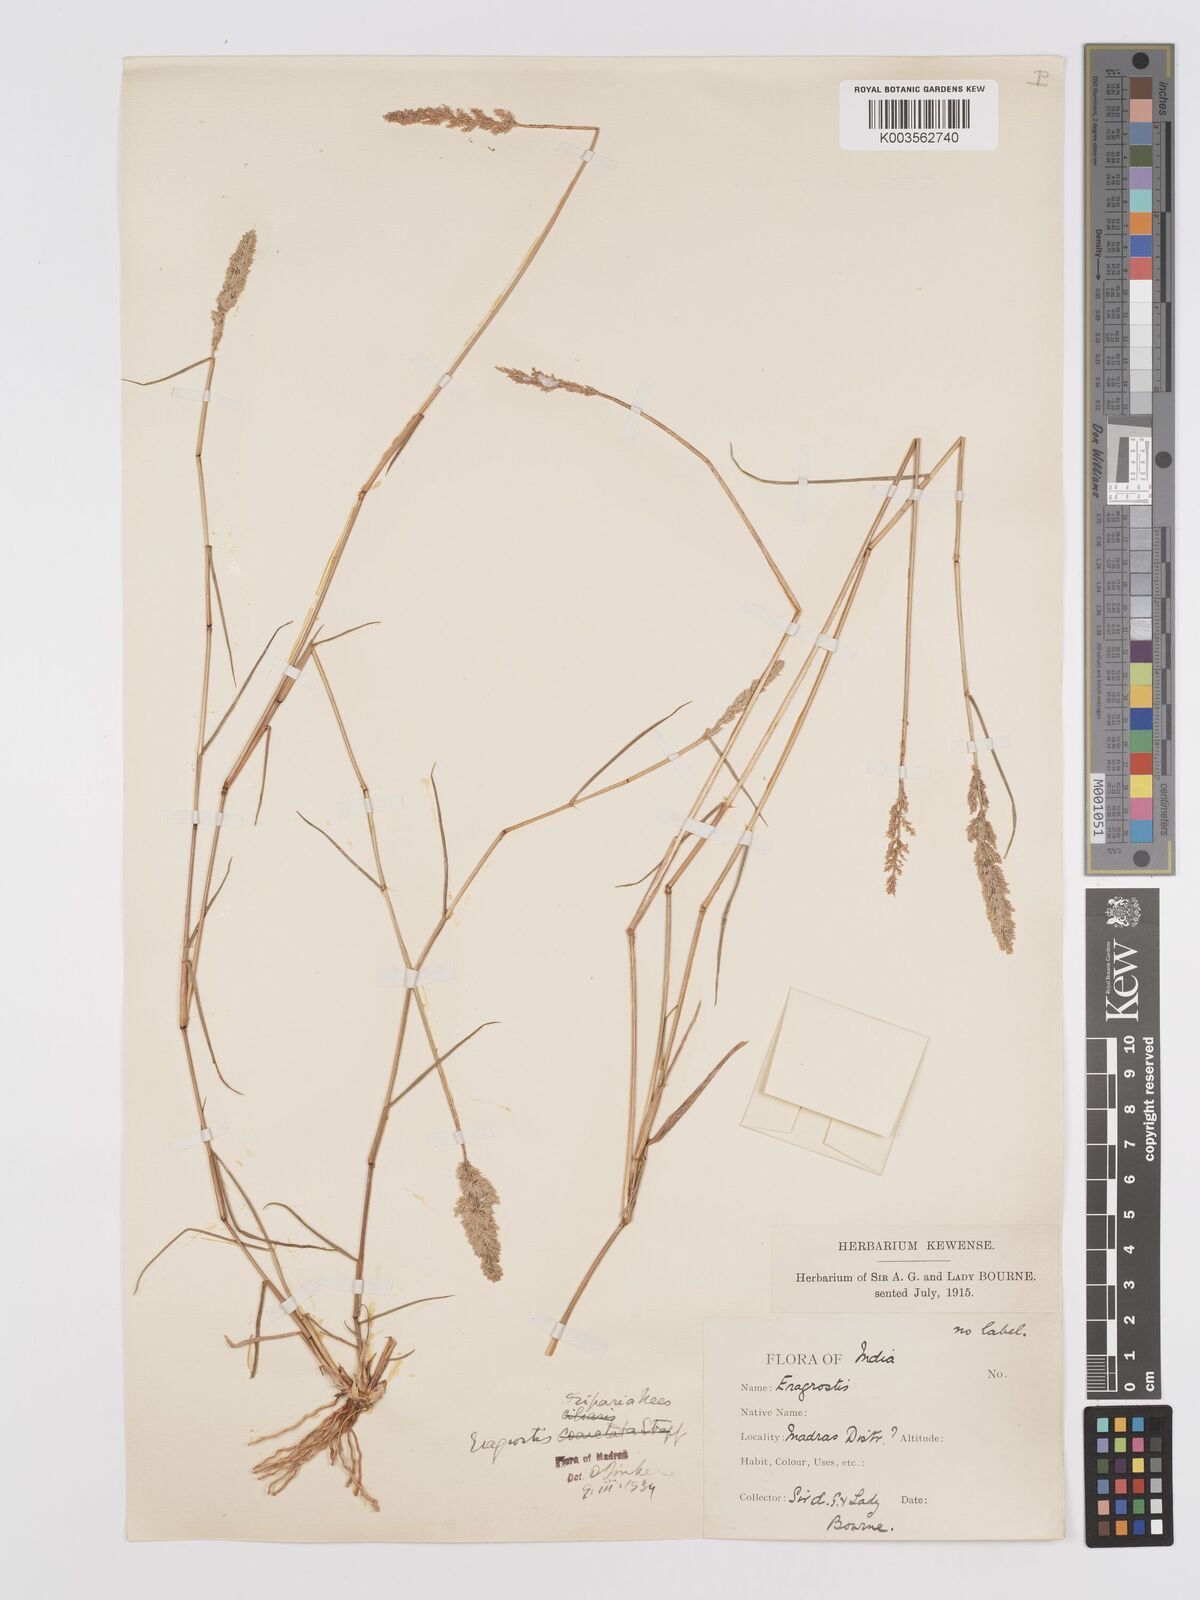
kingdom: Plantae
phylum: Tracheophyta
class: Liliopsida
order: Poales
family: Poaceae
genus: Eragrostis
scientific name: Eragrostis riparia
